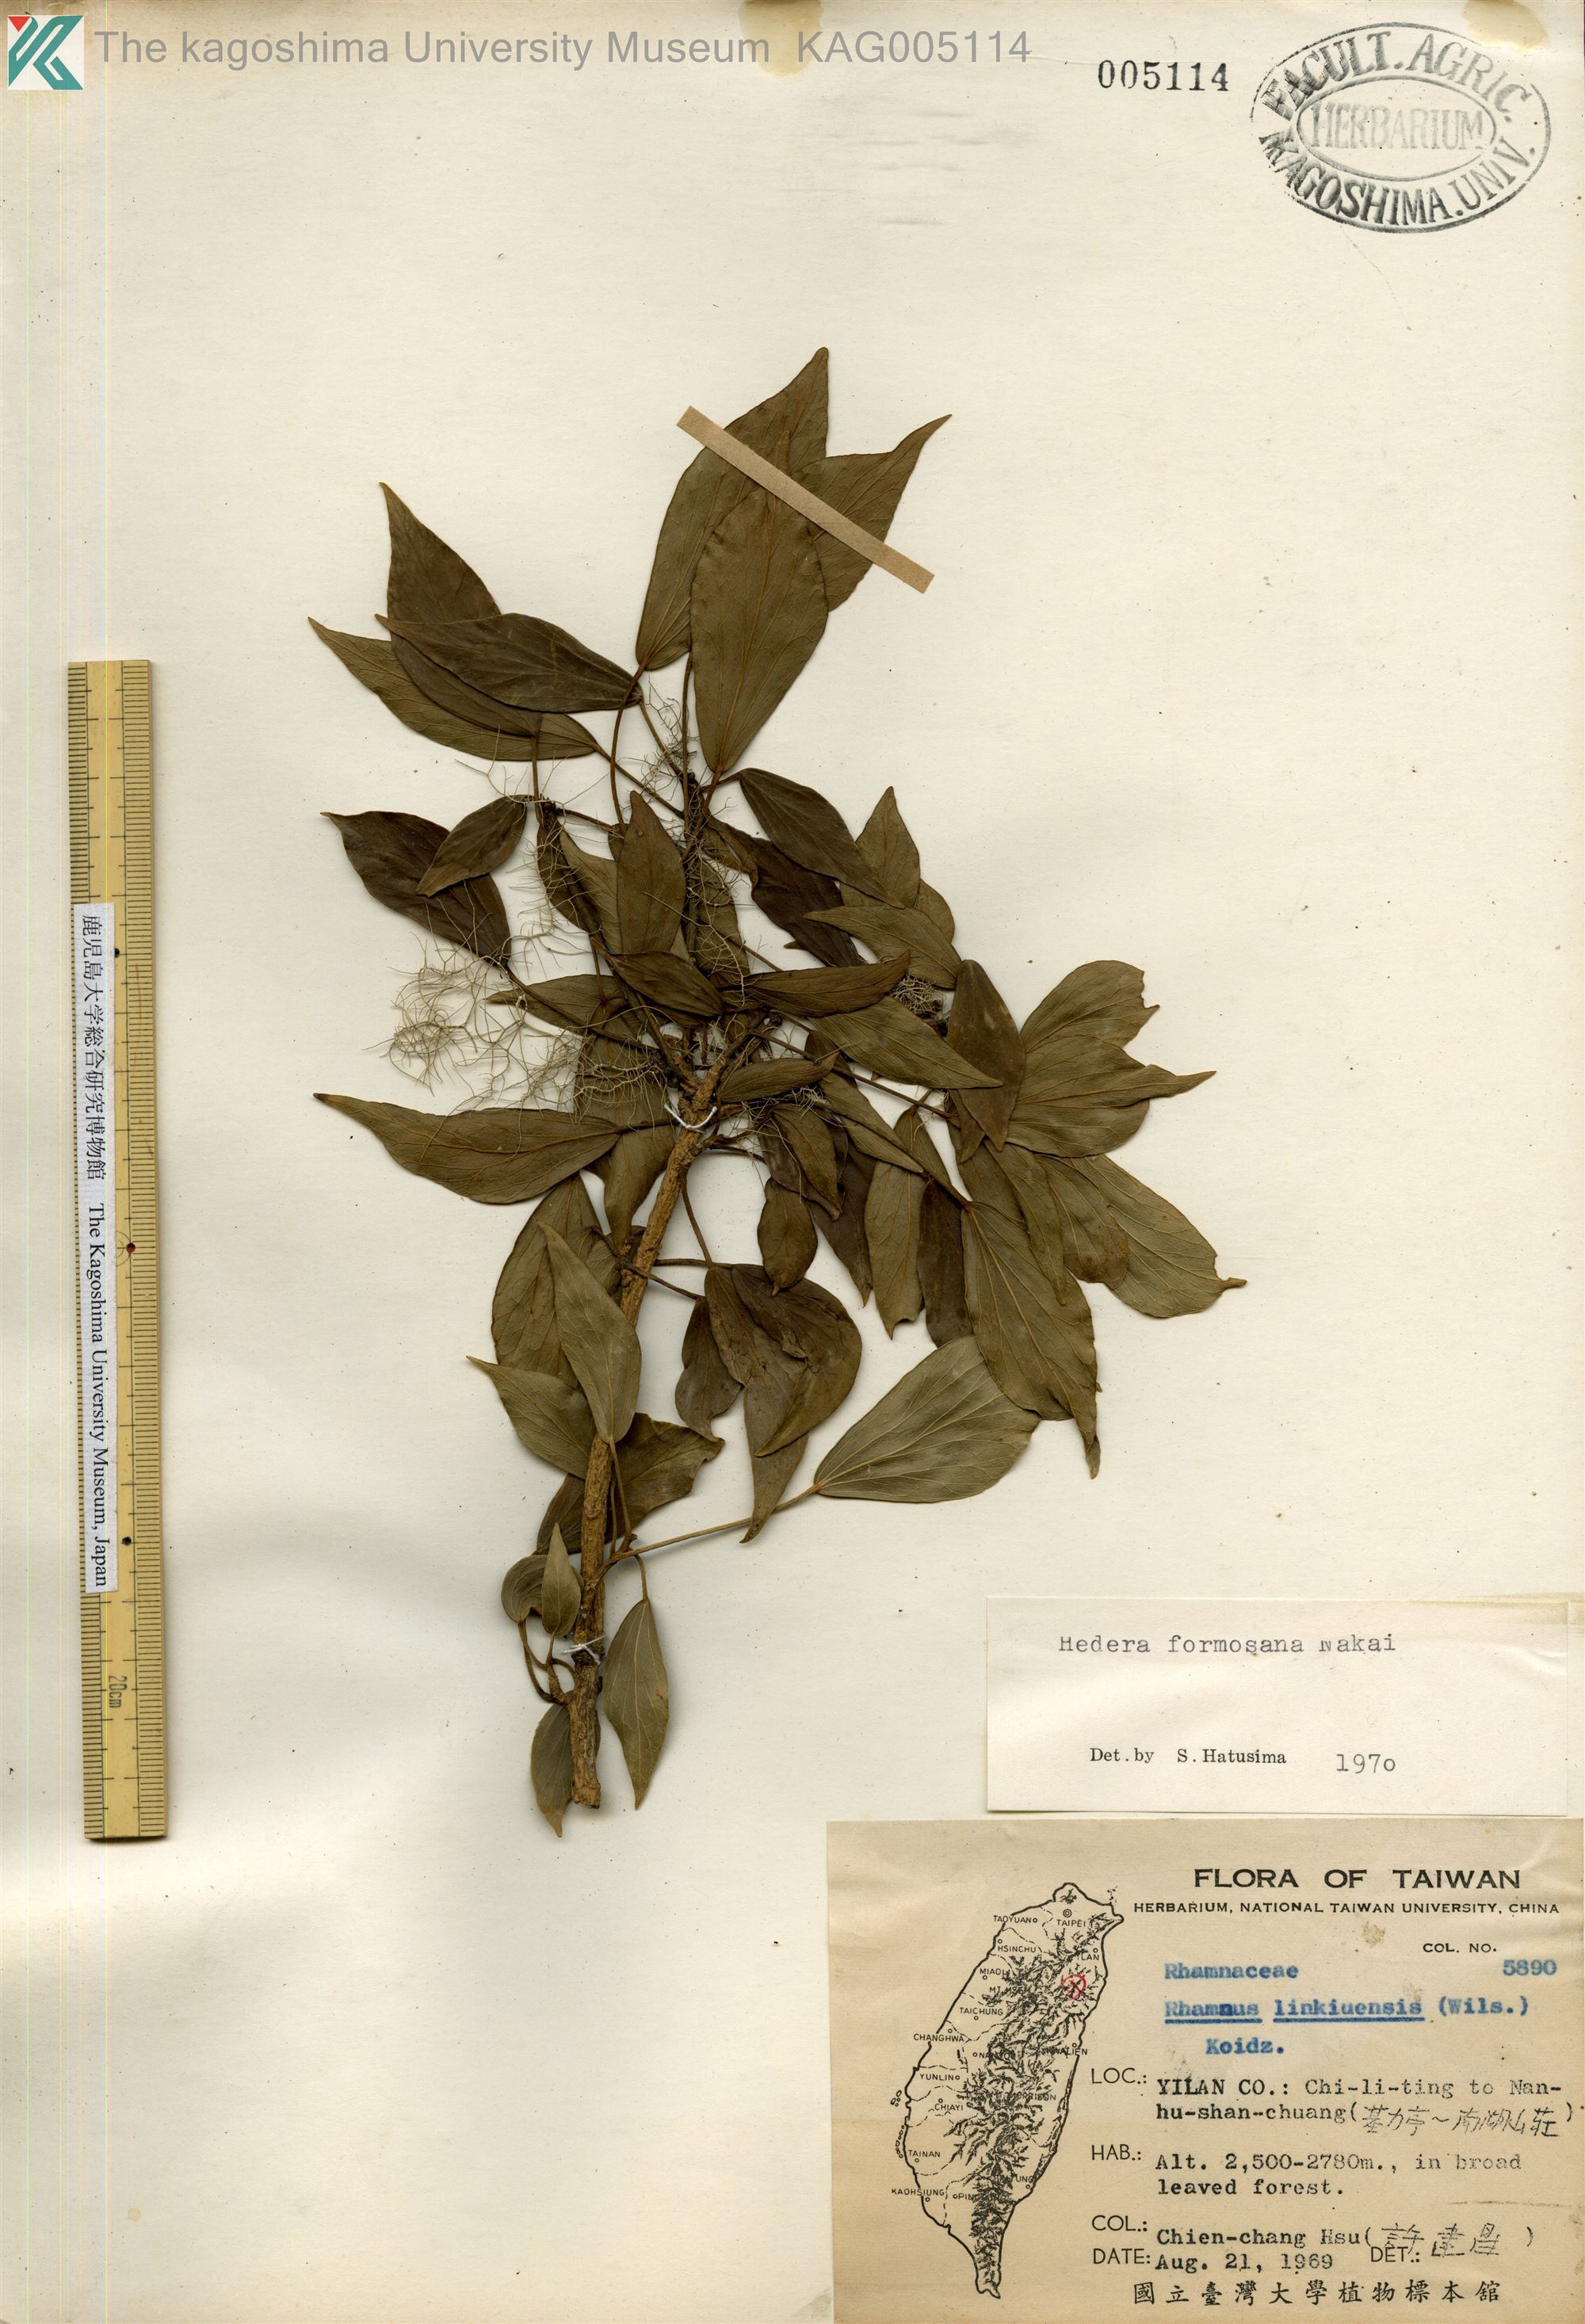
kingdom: Plantae
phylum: Tracheophyta
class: Magnoliopsida
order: Apiales
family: Araliaceae
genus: Hedera
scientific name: Hedera rhombea
